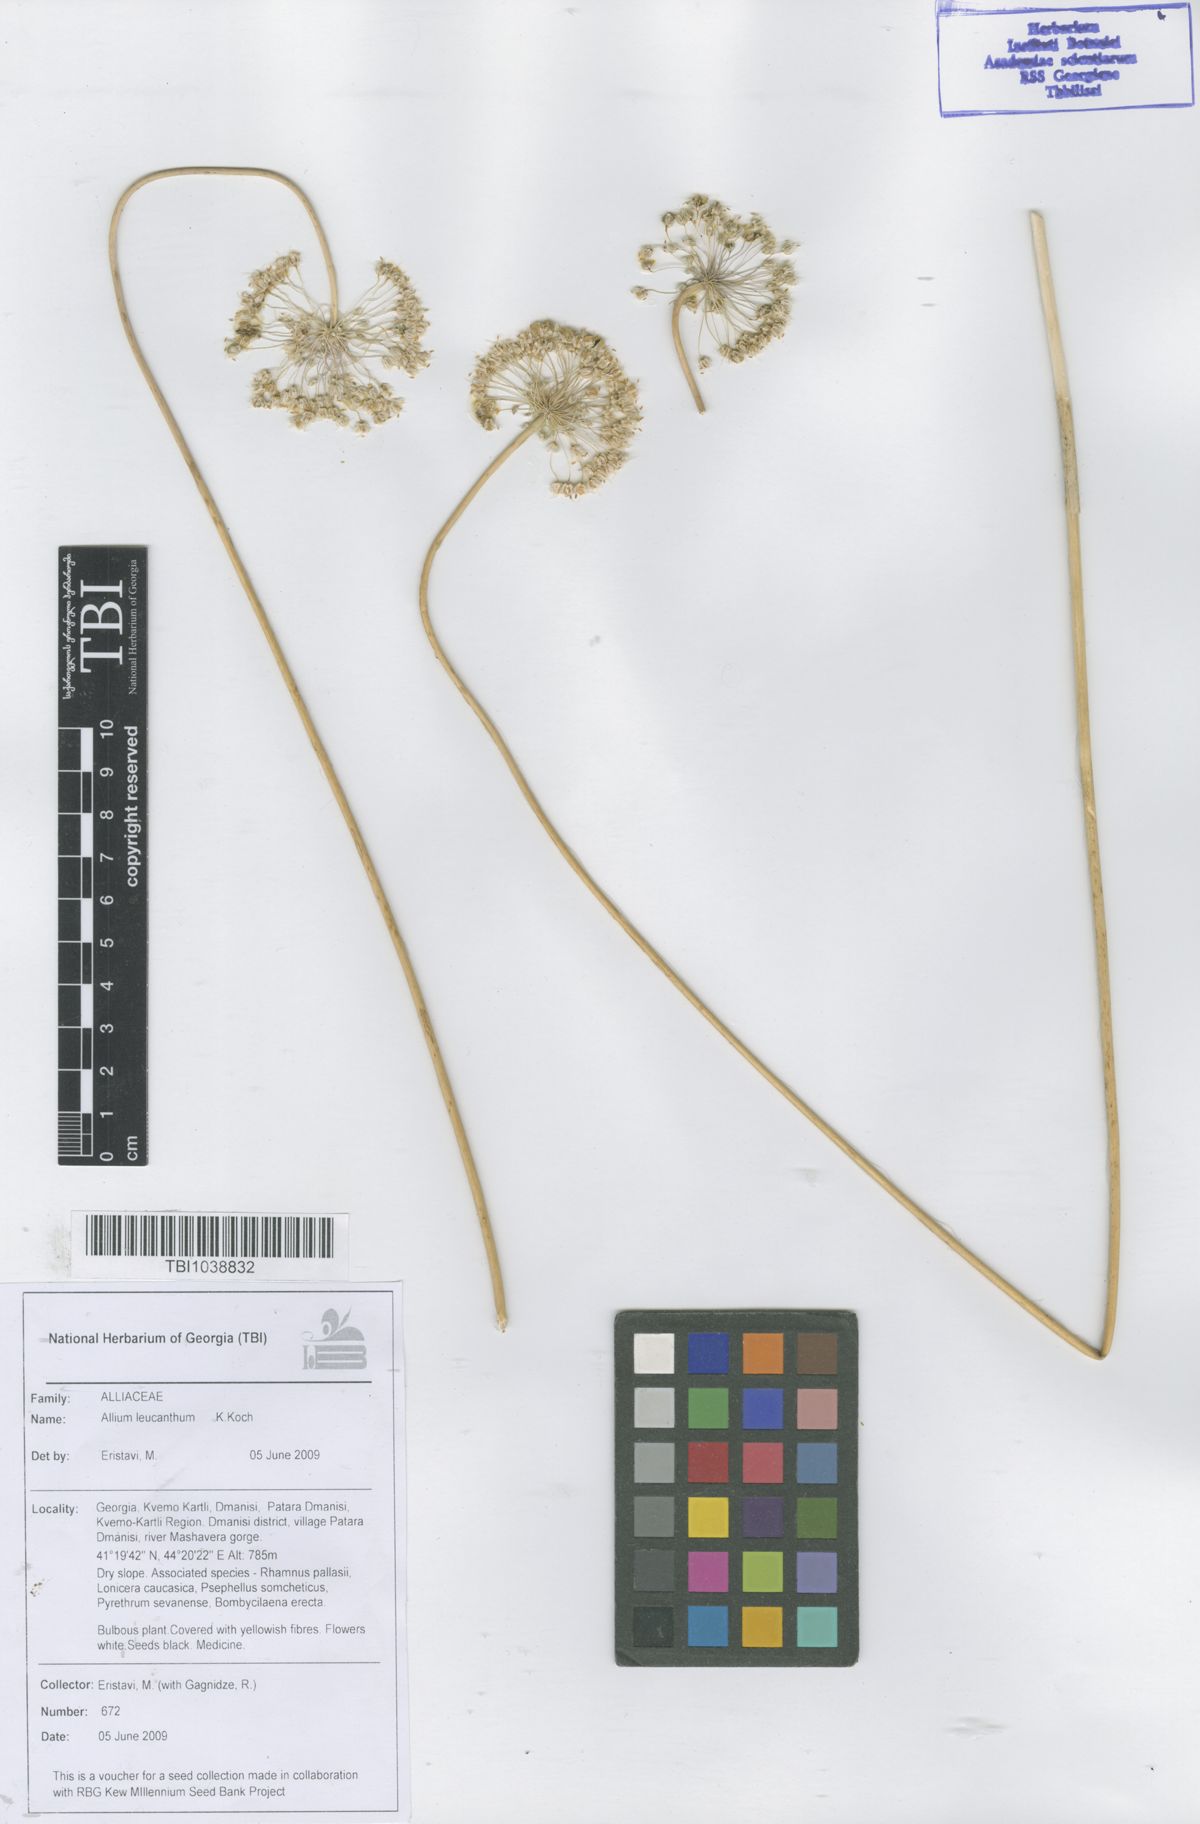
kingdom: Plantae
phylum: Tracheophyta
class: Liliopsida
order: Asparagales
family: Amaryllidaceae
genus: Allium
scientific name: Allium ampeloprasum
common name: Wild leek
